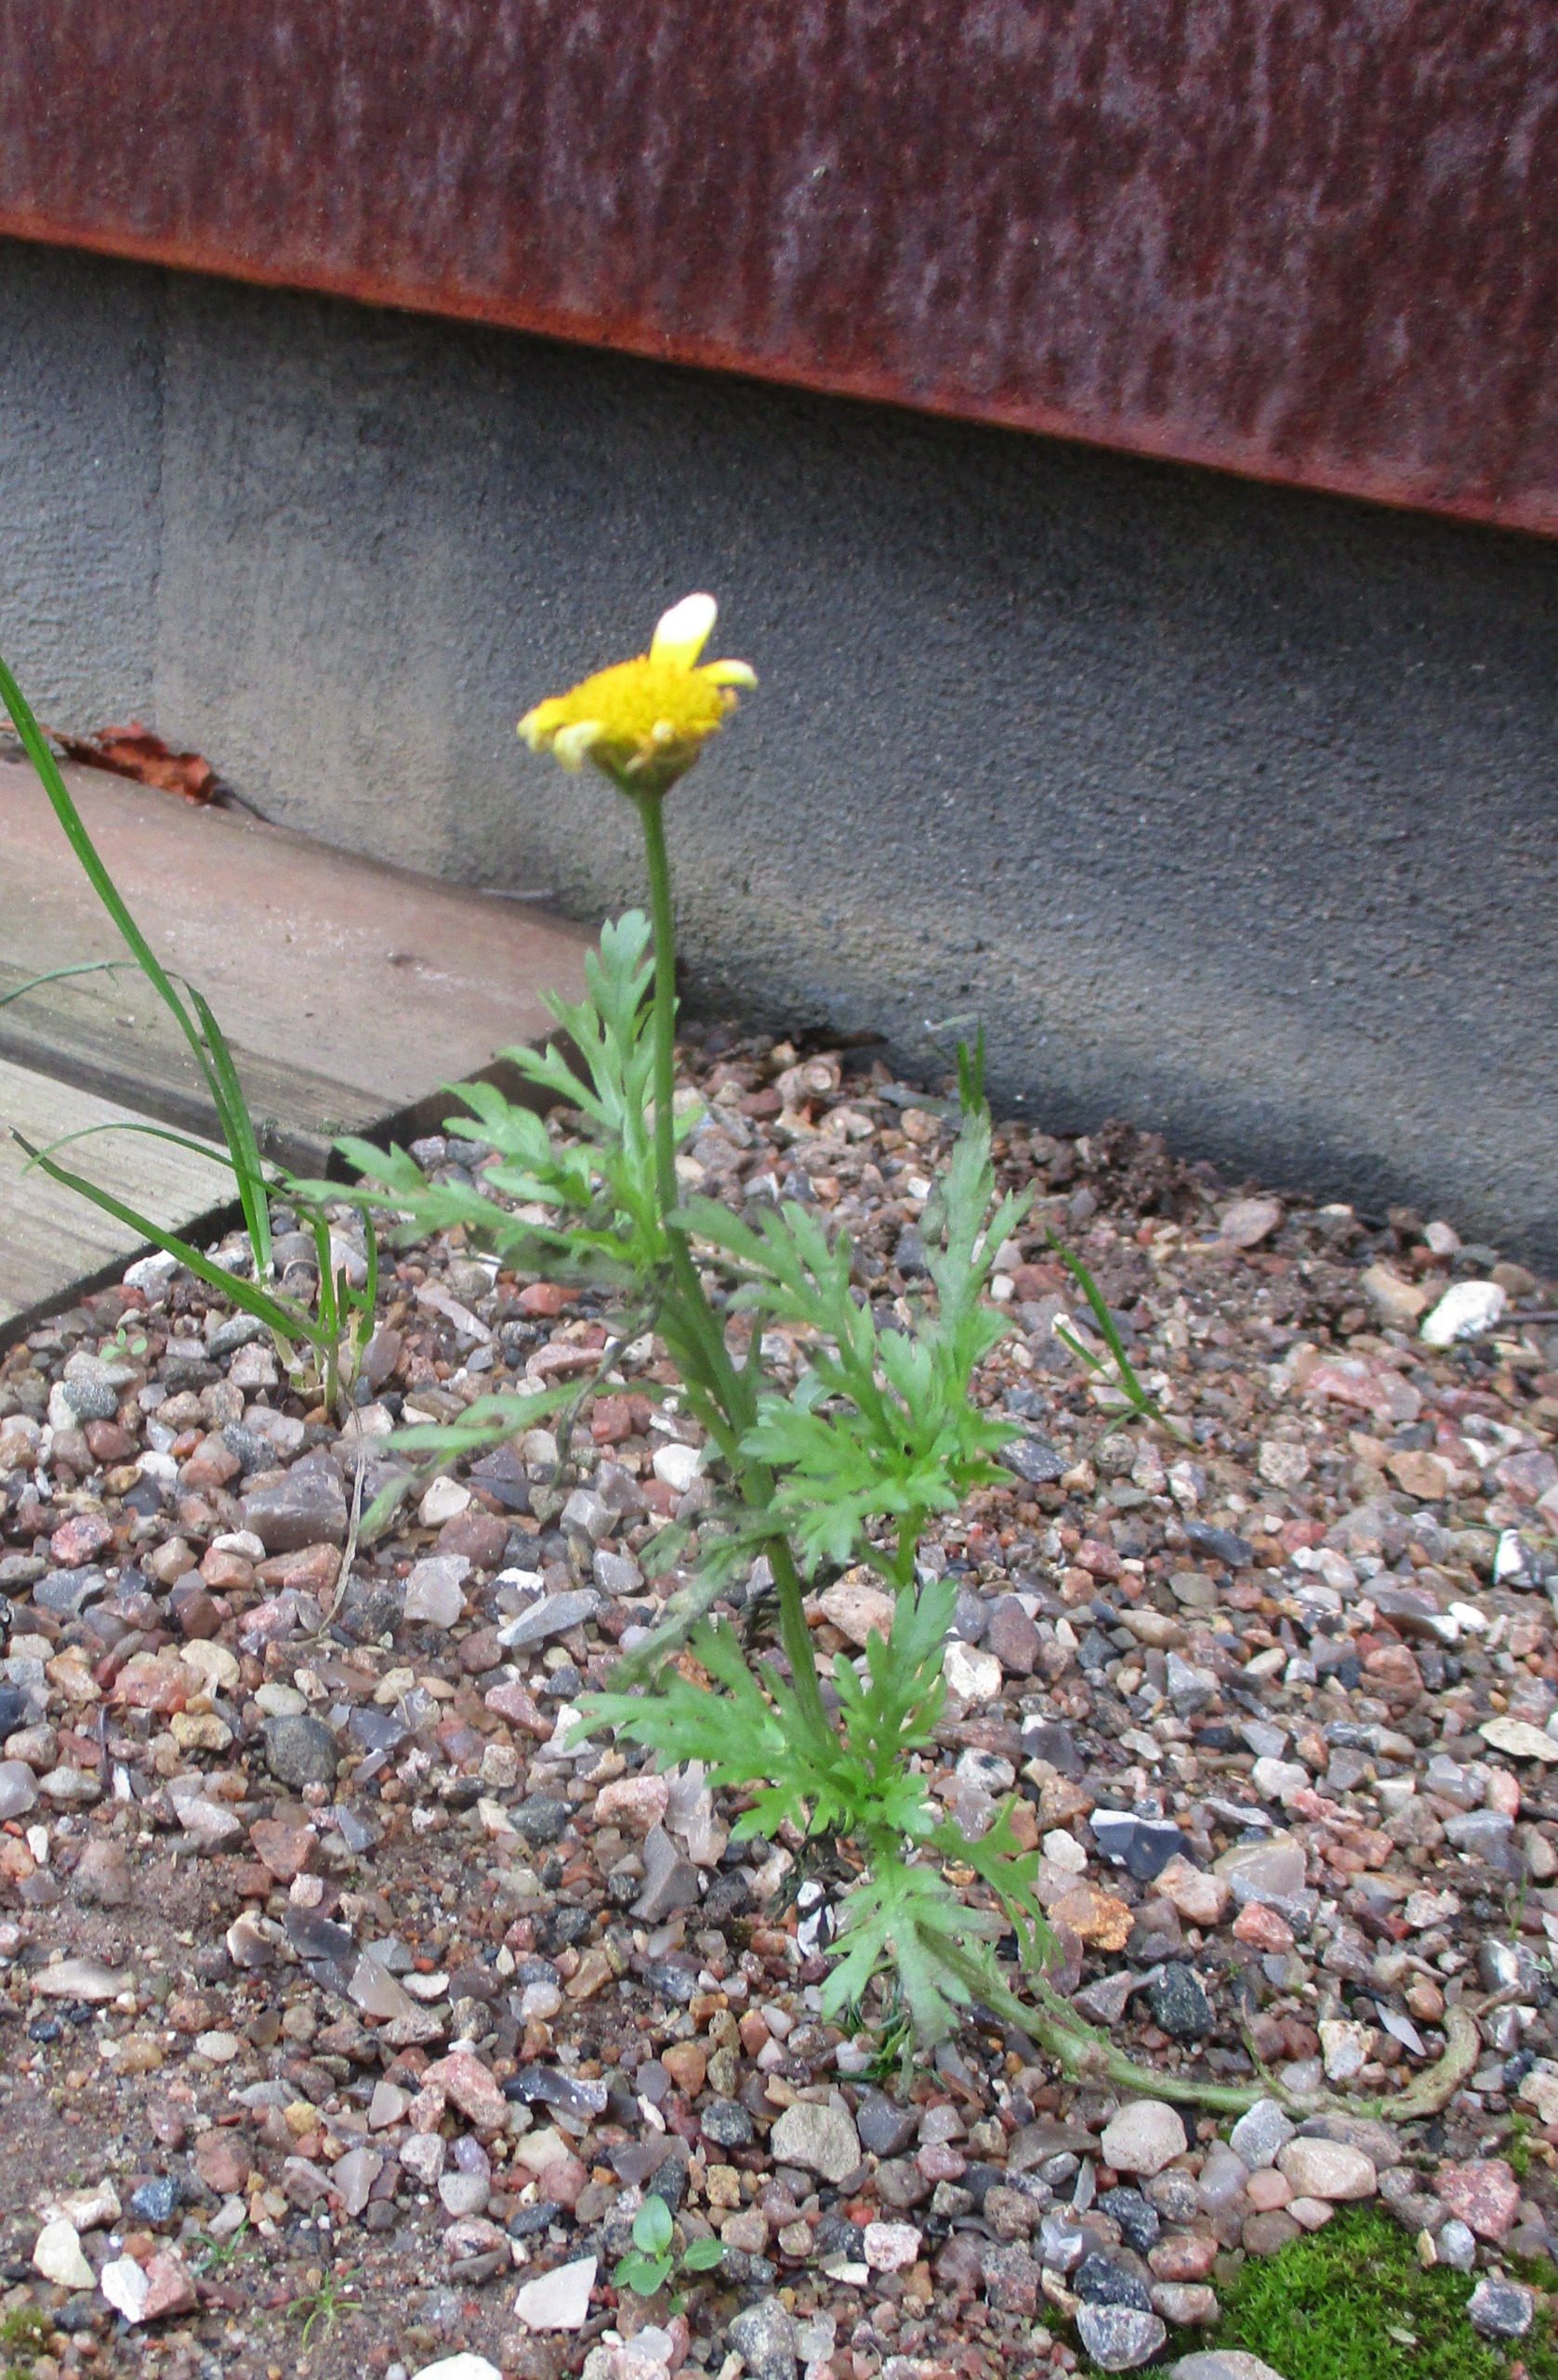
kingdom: Plantae
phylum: Tracheophyta
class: Magnoliopsida
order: Asterales
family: Asteraceae
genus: Glebionis
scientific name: Glebionis coronaria
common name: Kron-okseøje
